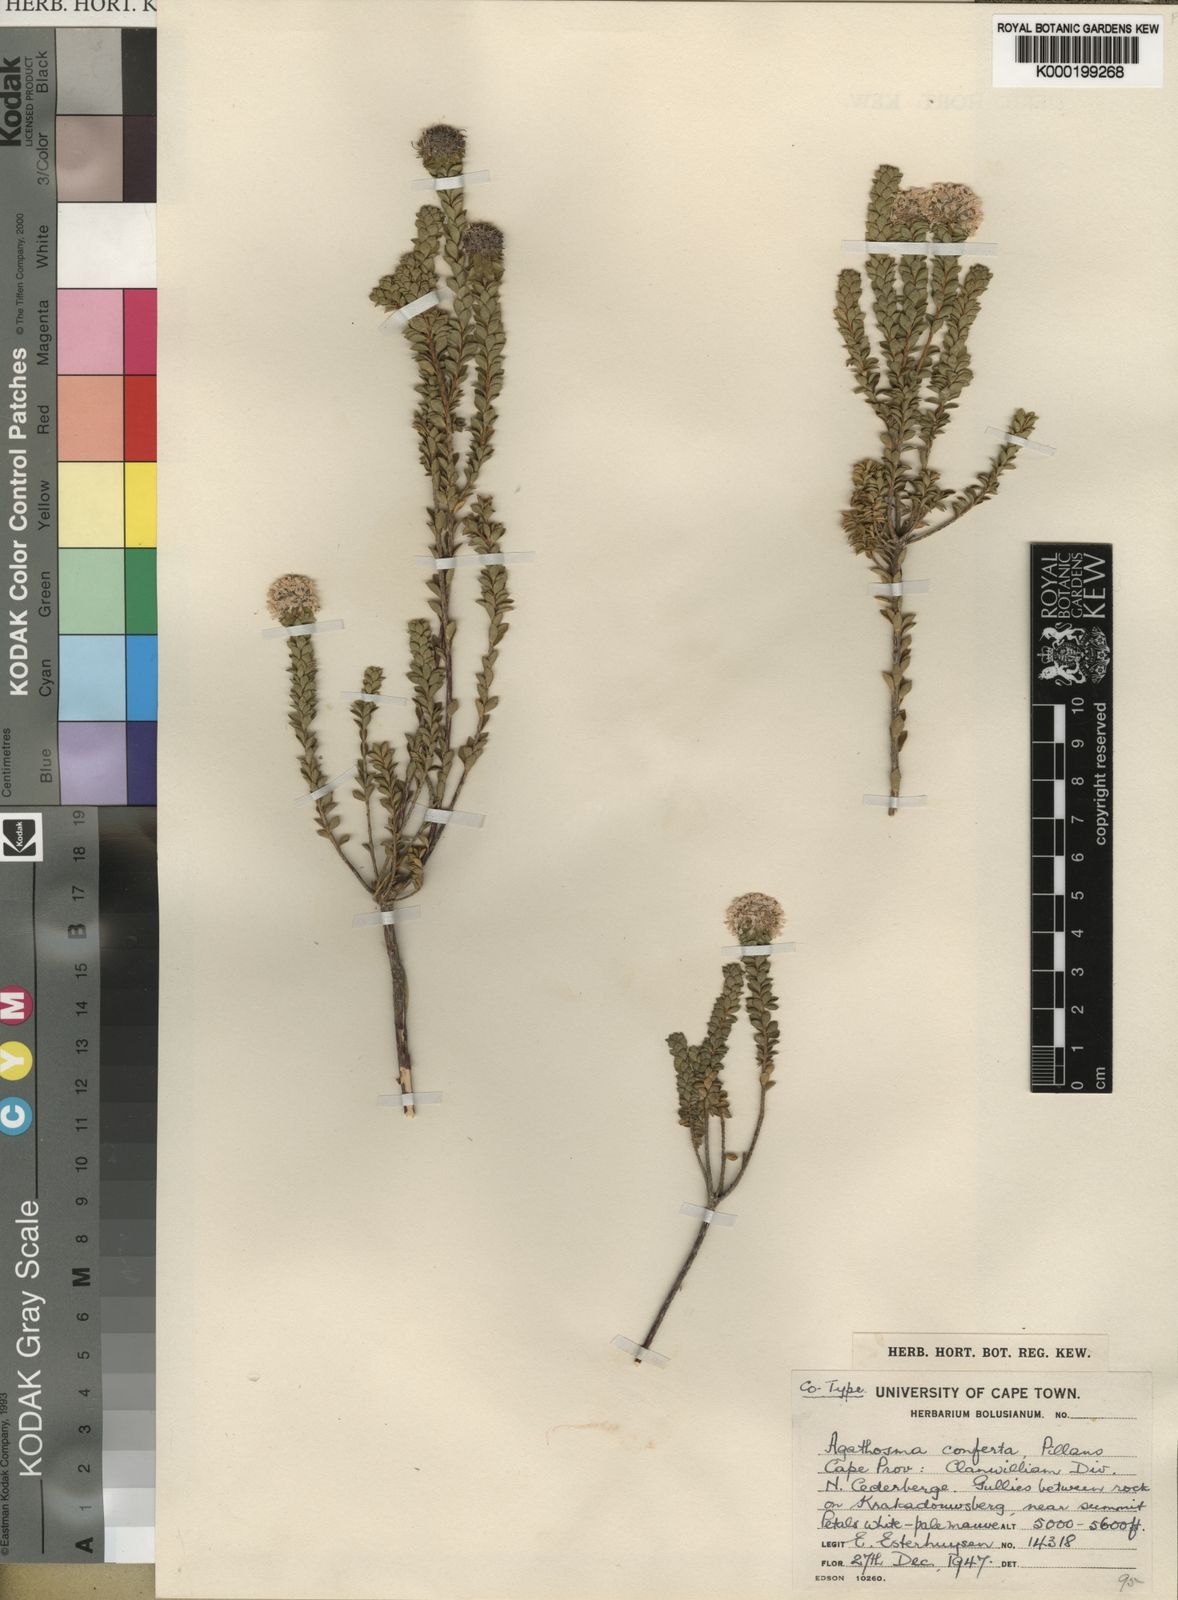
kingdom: Plantae
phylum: Tracheophyta
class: Magnoliopsida
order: Sapindales
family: Rutaceae
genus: Agathosma
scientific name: Agathosma conferta
